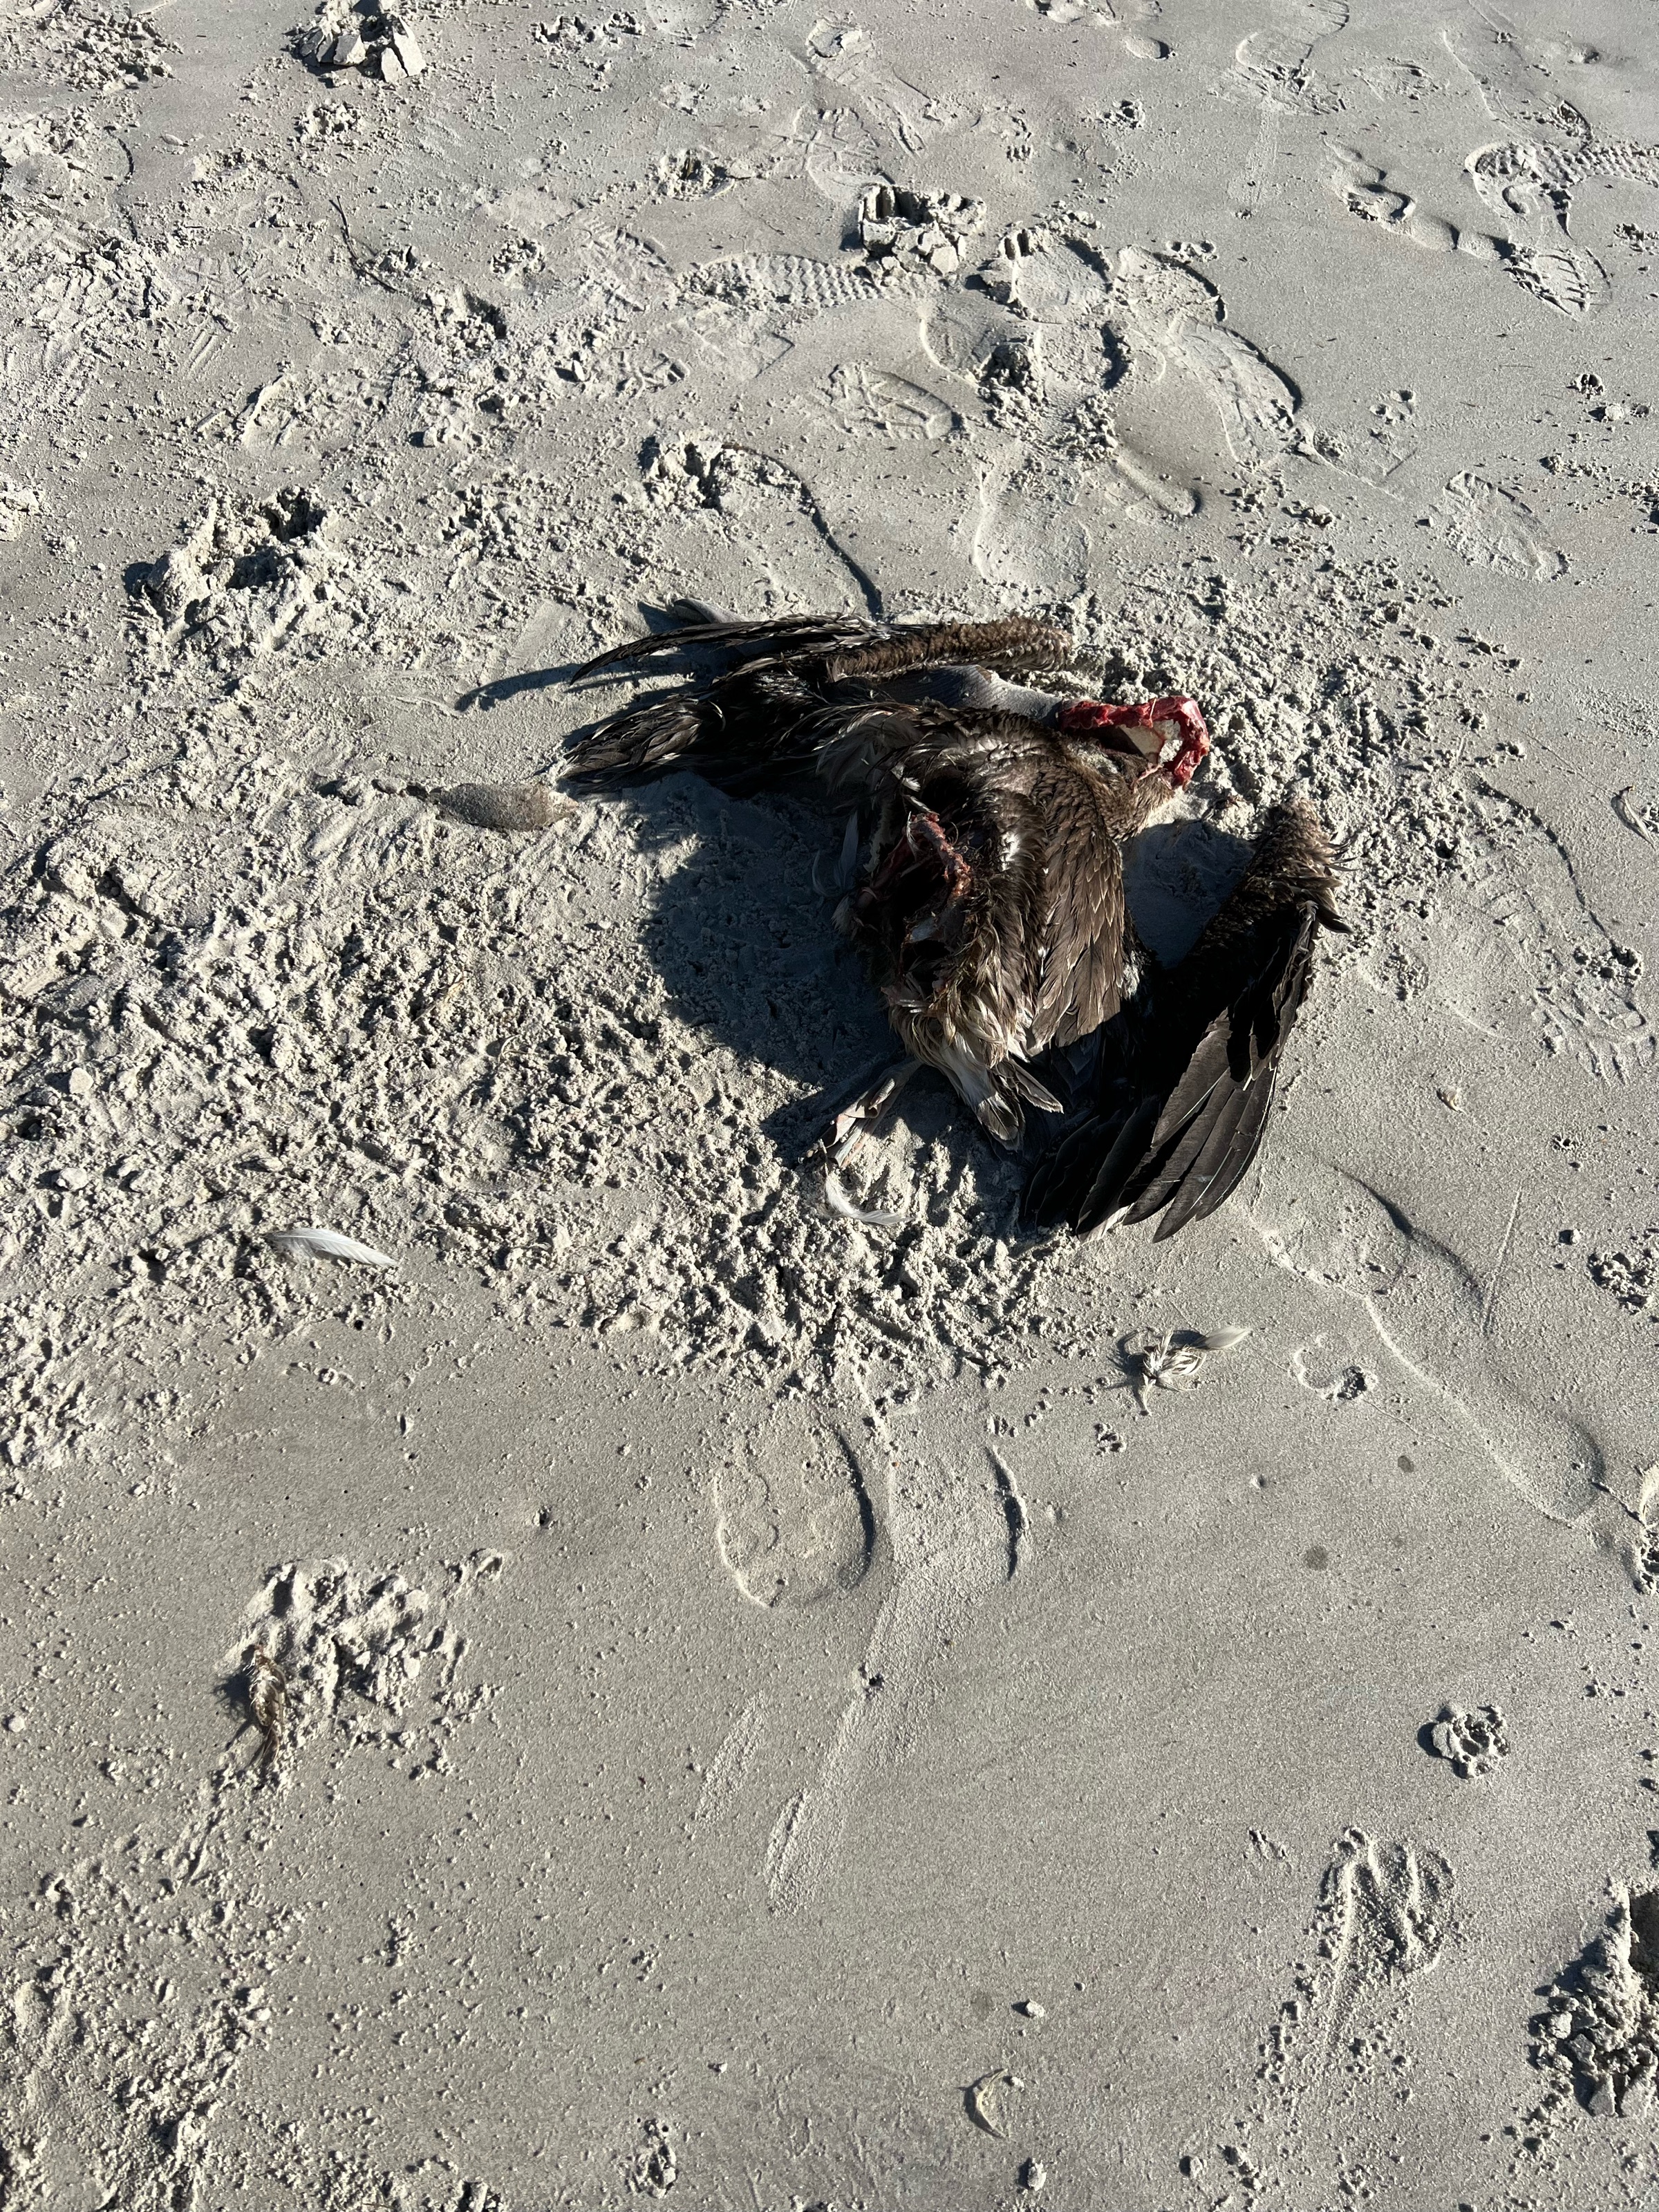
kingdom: Animalia
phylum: Chordata
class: Aves
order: Pelecaniformes
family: Pelecanidae
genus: Pelecanus
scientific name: Pelecanus occidentalis
